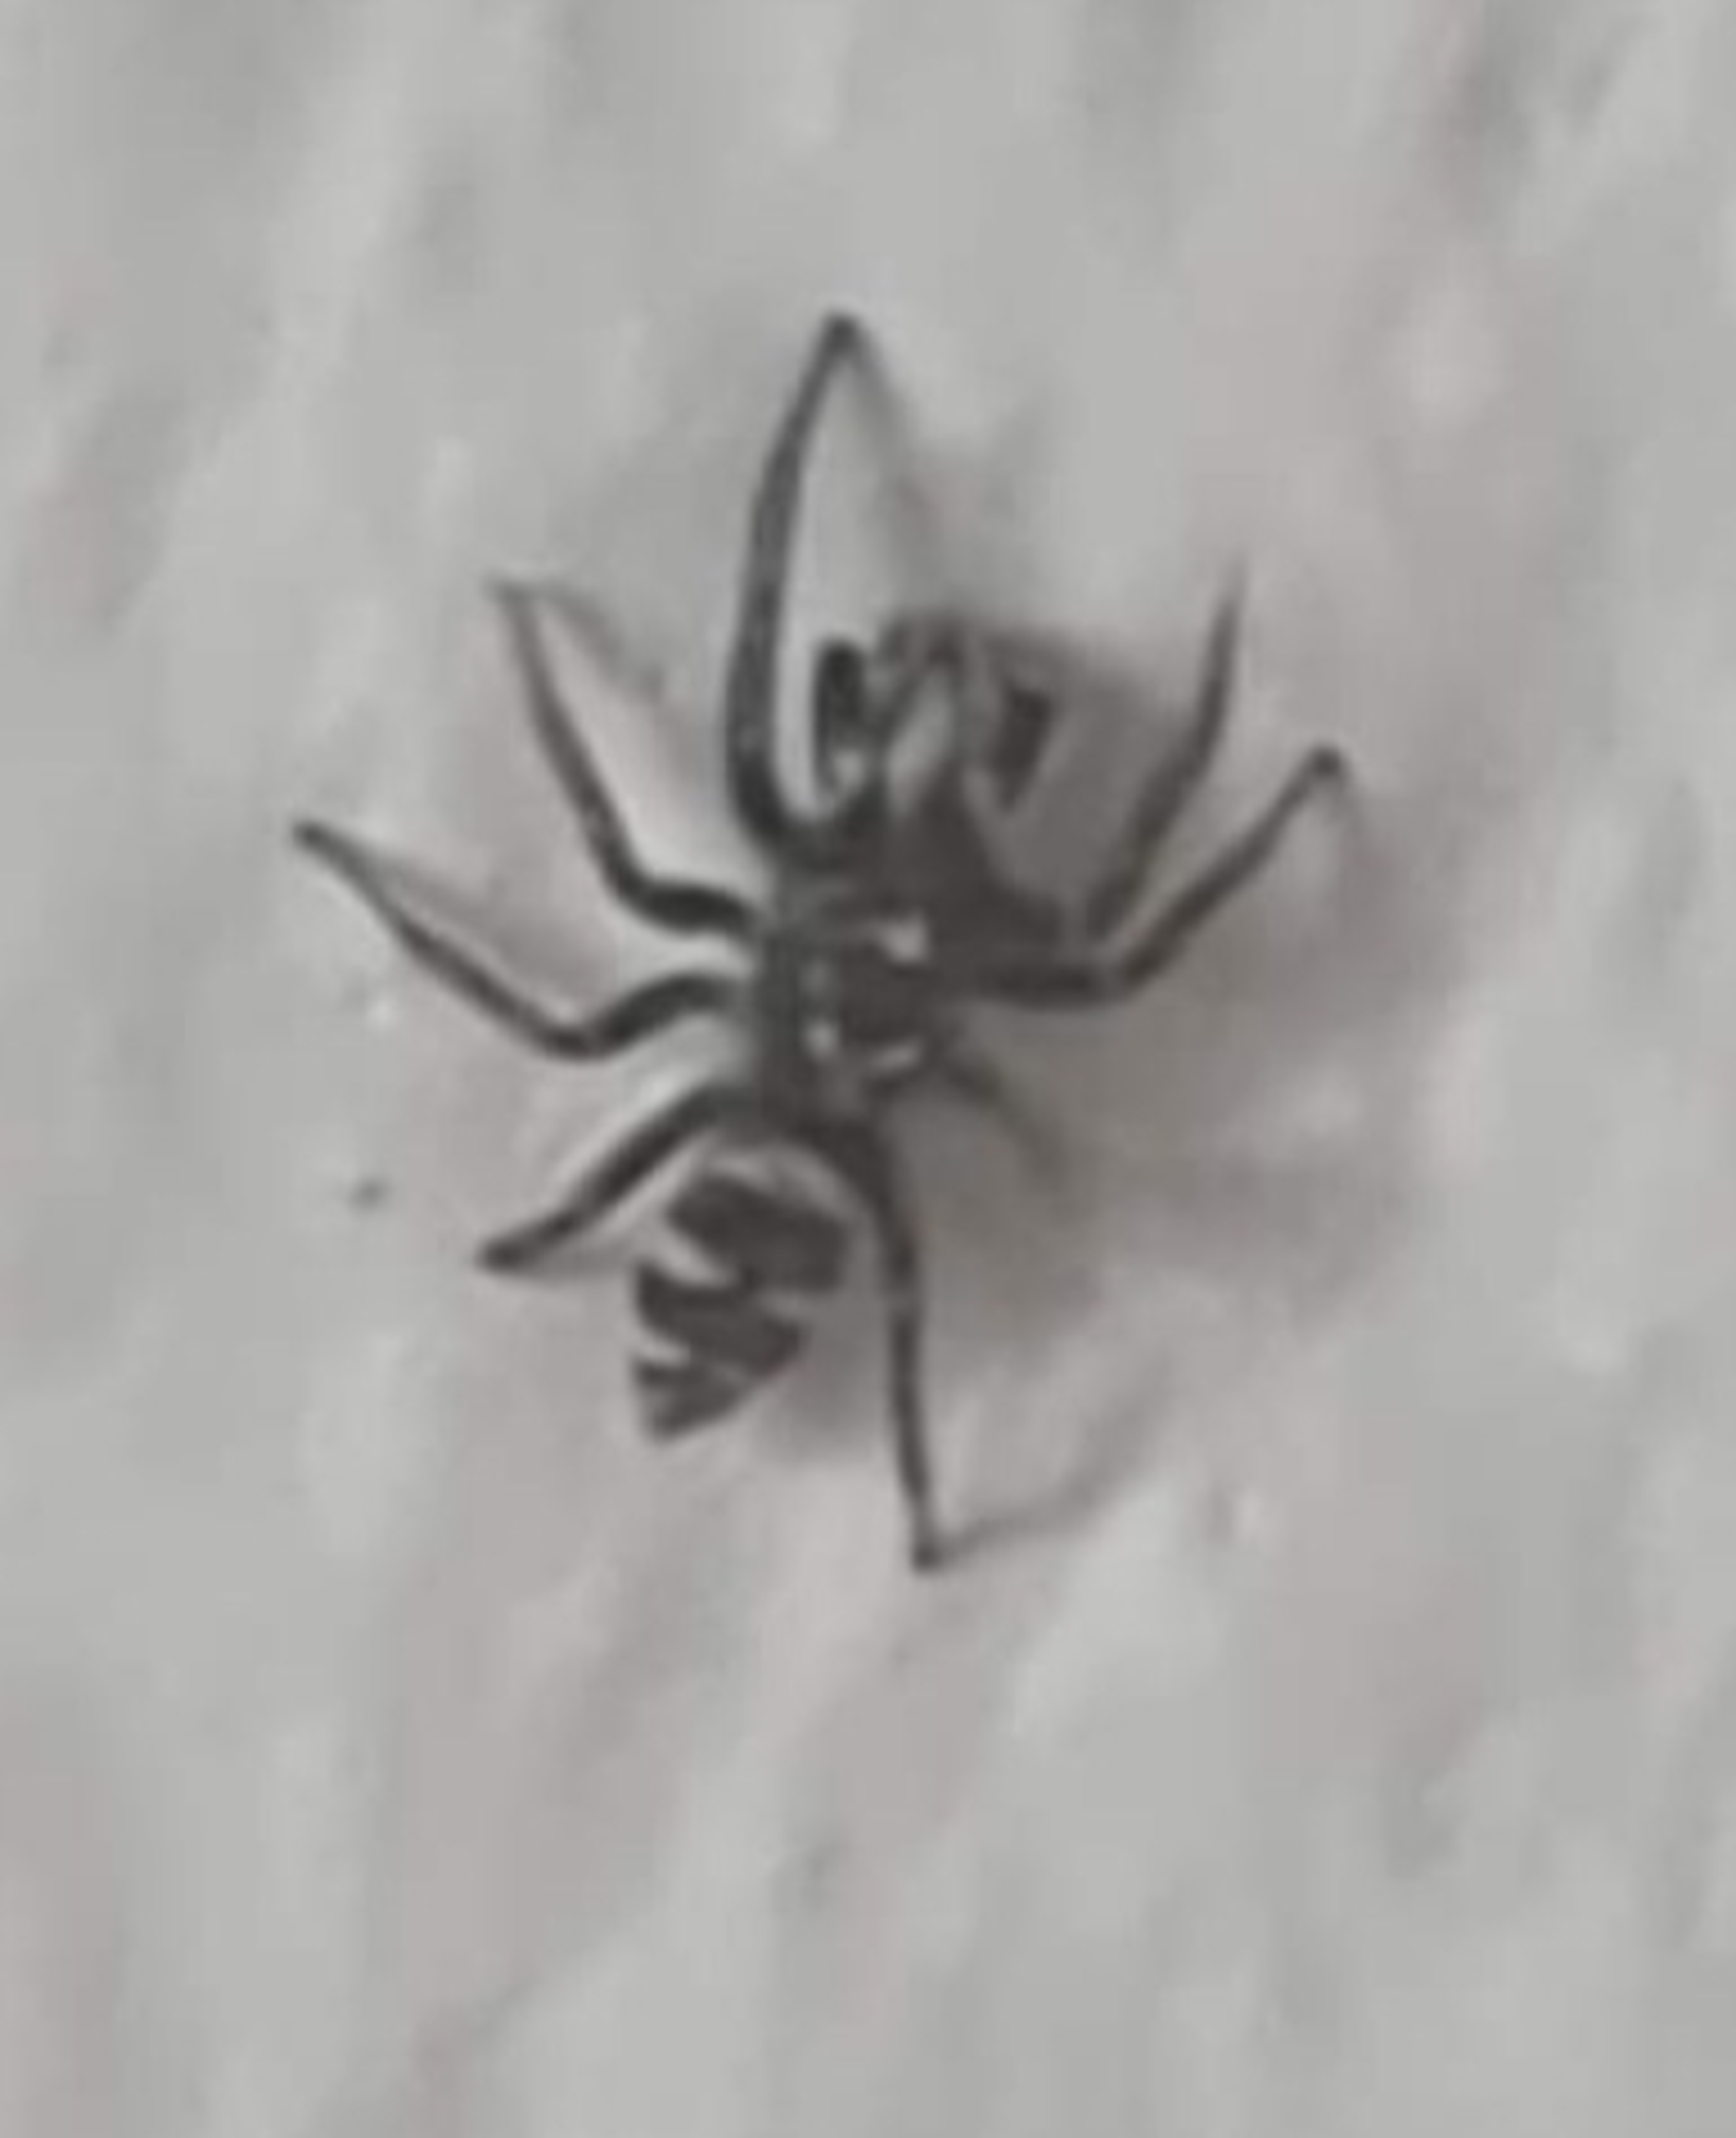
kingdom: Animalia
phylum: Arthropoda
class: Arachnida
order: Araneae
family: Salticidae
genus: Salticus
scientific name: Salticus scenicus
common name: Almindelig zebraedderkop
